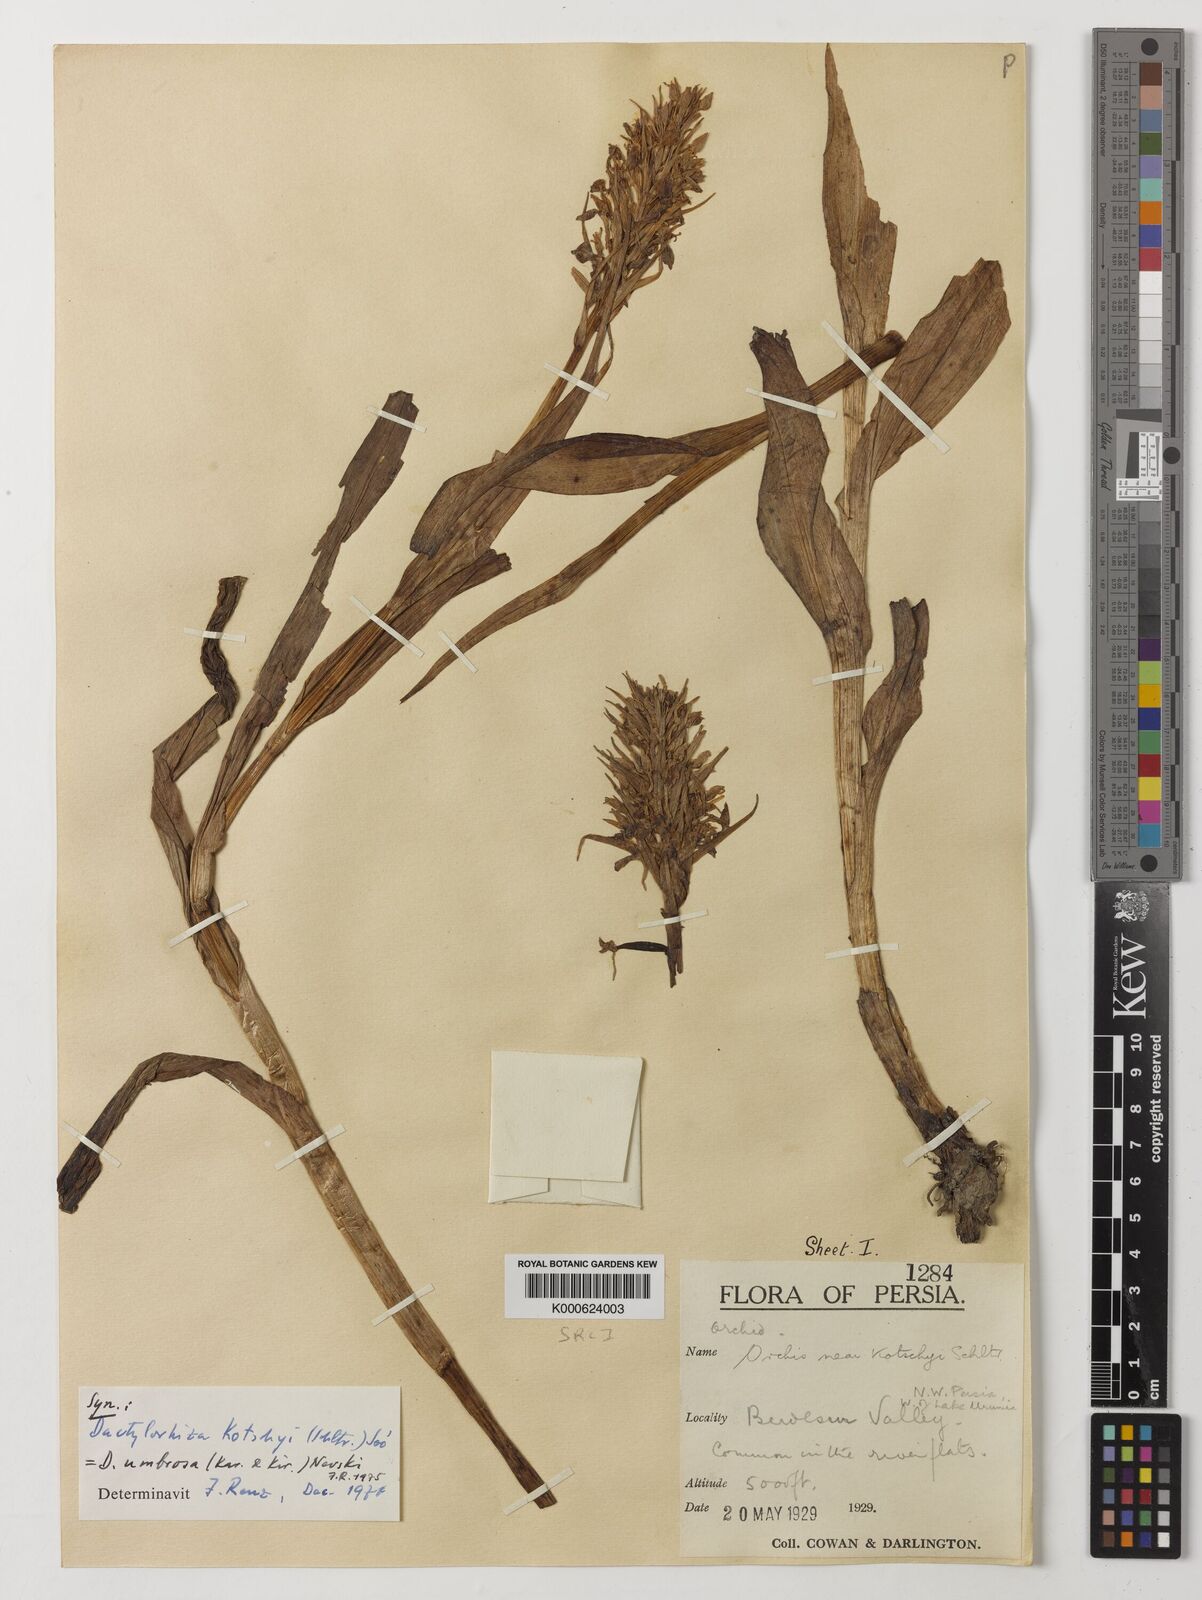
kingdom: Plantae
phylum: Tracheophyta
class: Liliopsida
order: Asparagales
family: Orchidaceae
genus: Dactylorhiza
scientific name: Dactylorhiza
